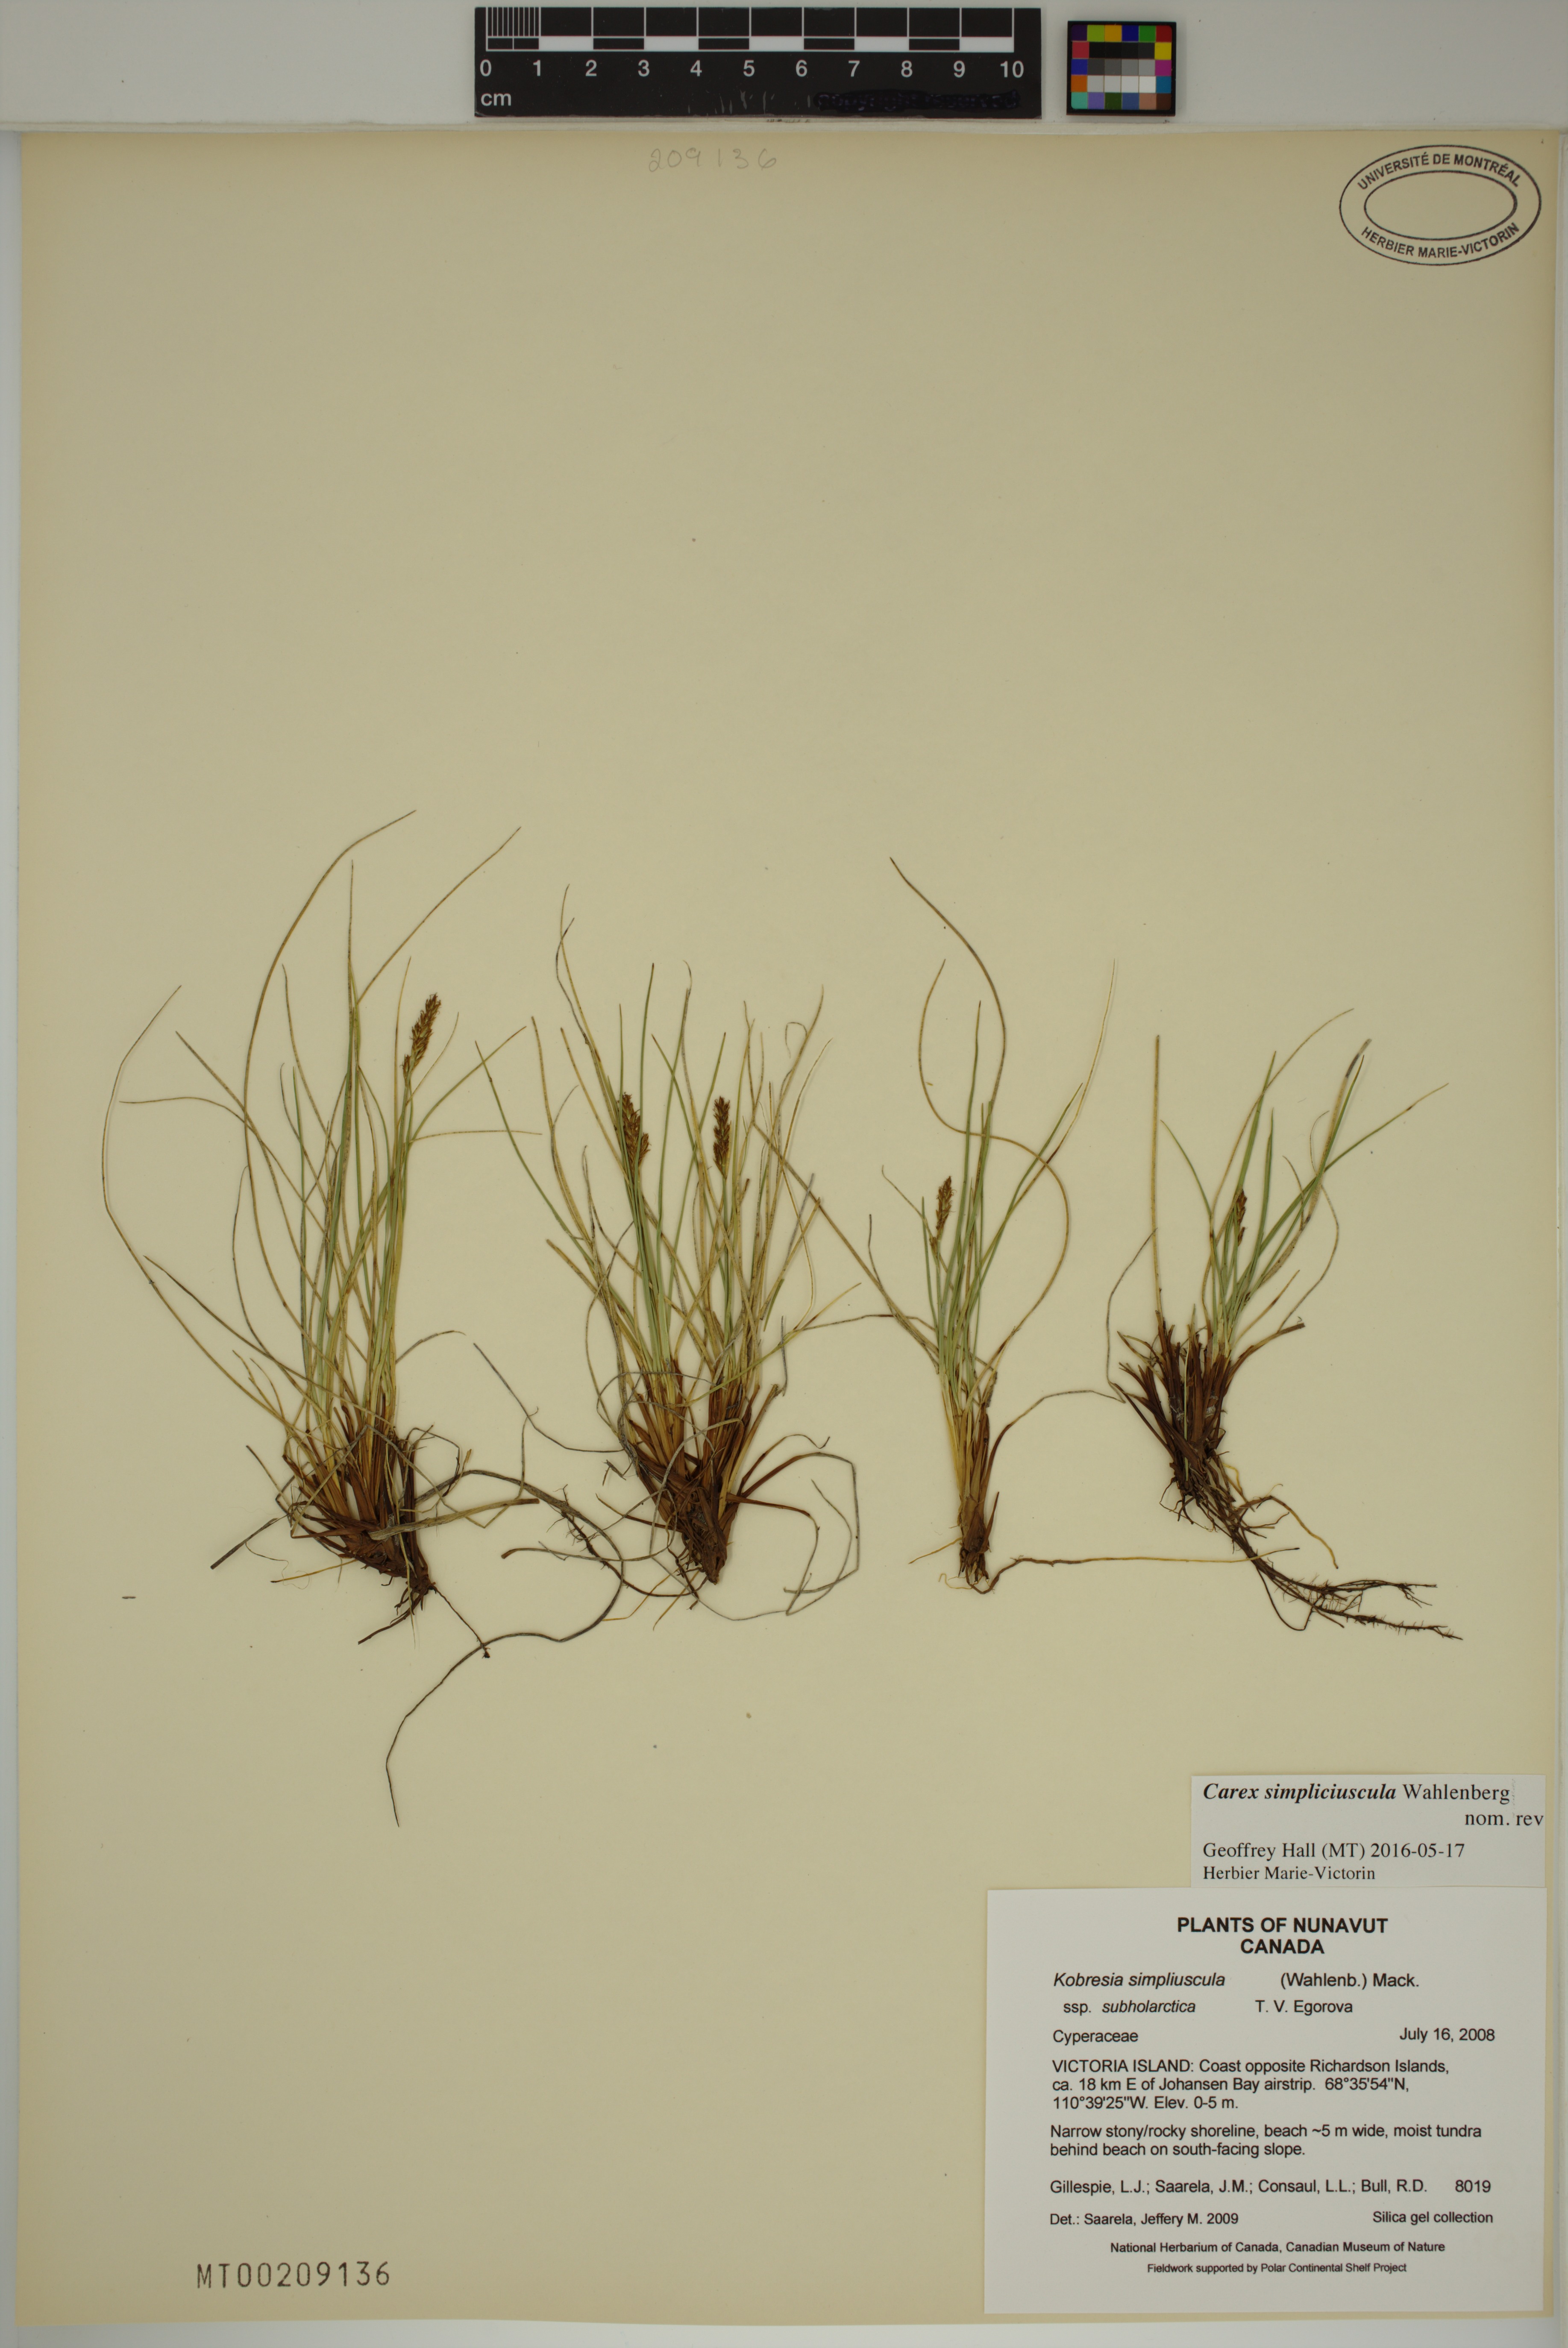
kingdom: Plantae
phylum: Tracheophyta
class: Liliopsida
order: Poales
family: Cyperaceae
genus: Carex
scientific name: Carex simpliciuscula
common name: Simple bog sedge
